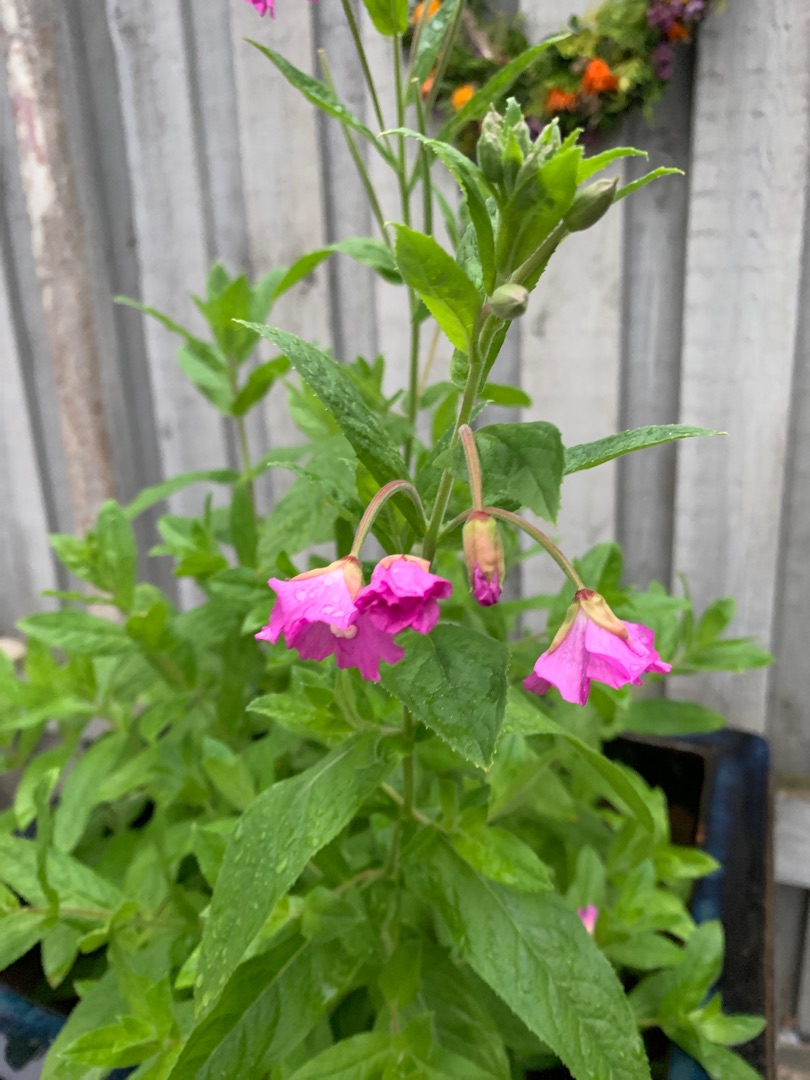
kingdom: Plantae
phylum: Tracheophyta
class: Magnoliopsida
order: Myrtales
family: Onagraceae
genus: Epilobium
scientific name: Epilobium hirsutum
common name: Lådden dueurt
